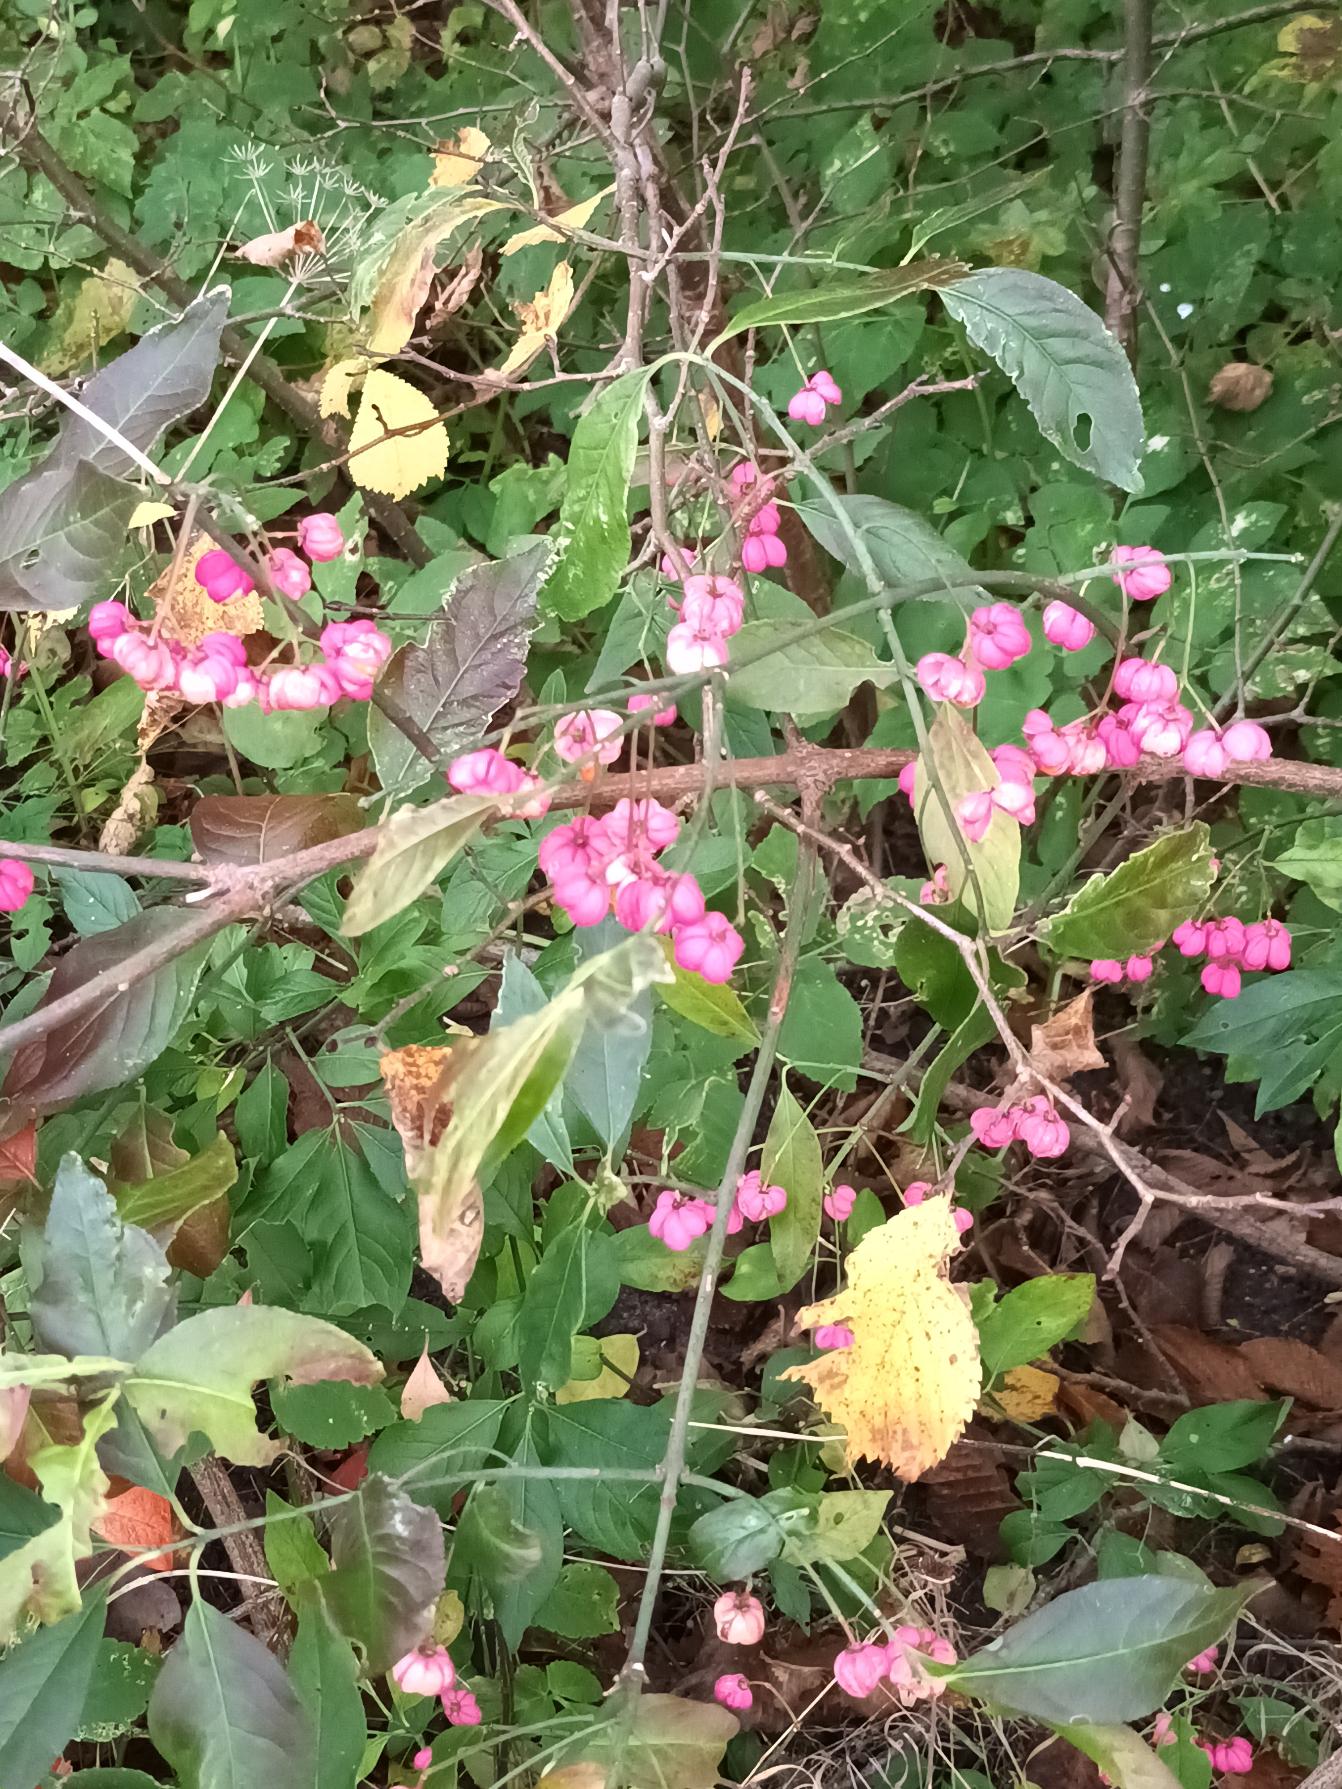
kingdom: Plantae
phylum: Tracheophyta
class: Magnoliopsida
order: Celastrales
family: Celastraceae
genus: Euonymus
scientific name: Euonymus europaeus
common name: Benved
